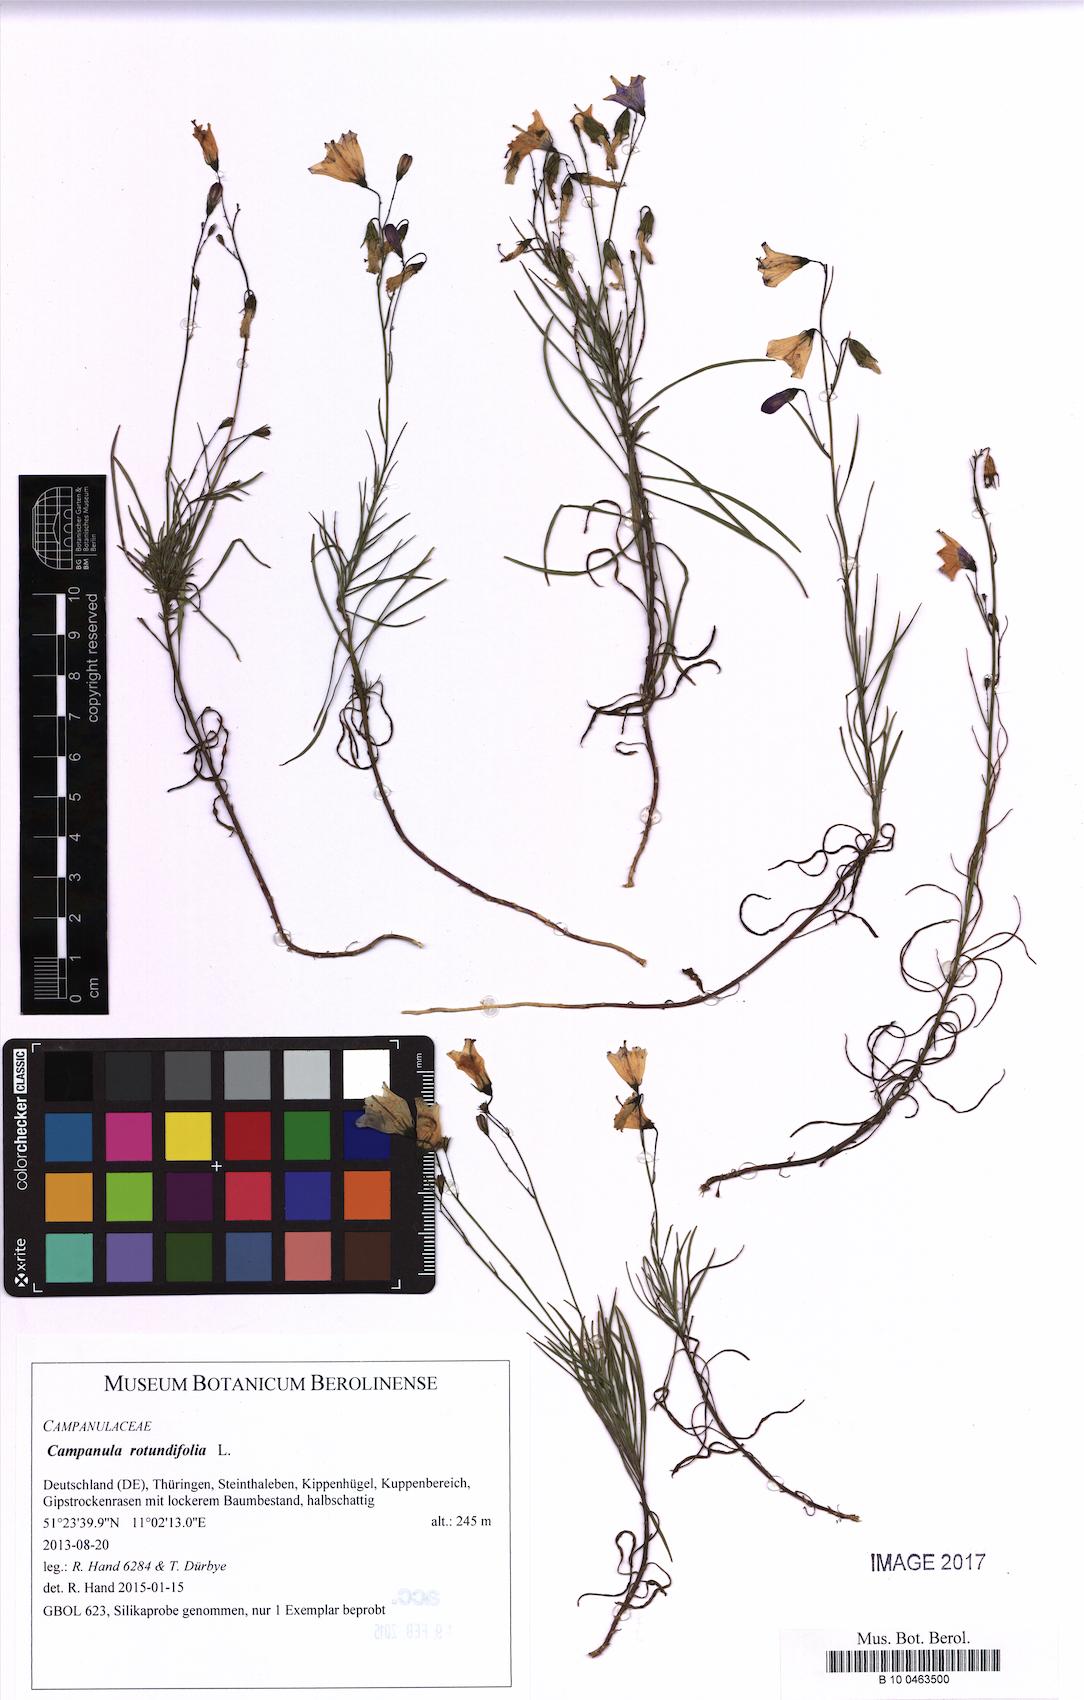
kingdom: Plantae
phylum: Tracheophyta
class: Magnoliopsida
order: Asterales
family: Campanulaceae
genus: Campanula
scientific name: Campanula rotundifolia
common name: Harebell
